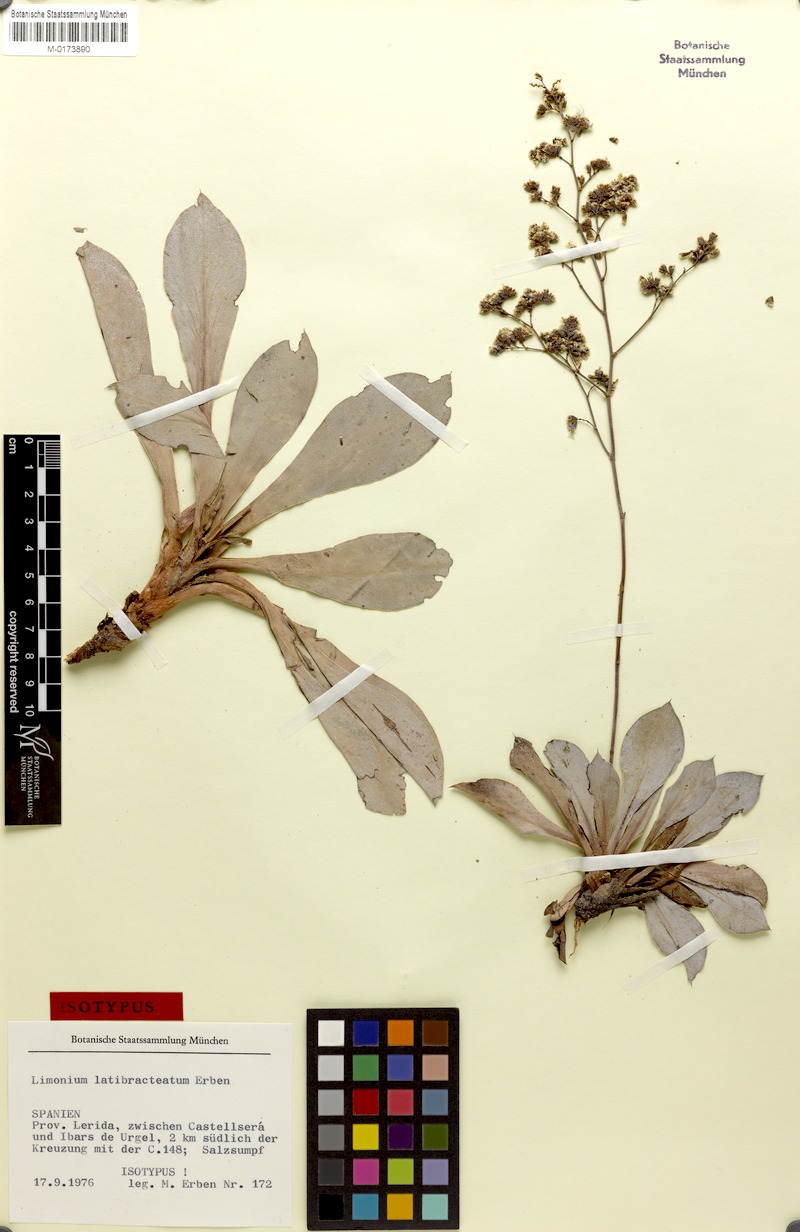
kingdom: Plantae
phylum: Tracheophyta
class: Magnoliopsida
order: Caryophyllales
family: Plumbaginaceae
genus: Limonium
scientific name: Limonium latibracteatum
